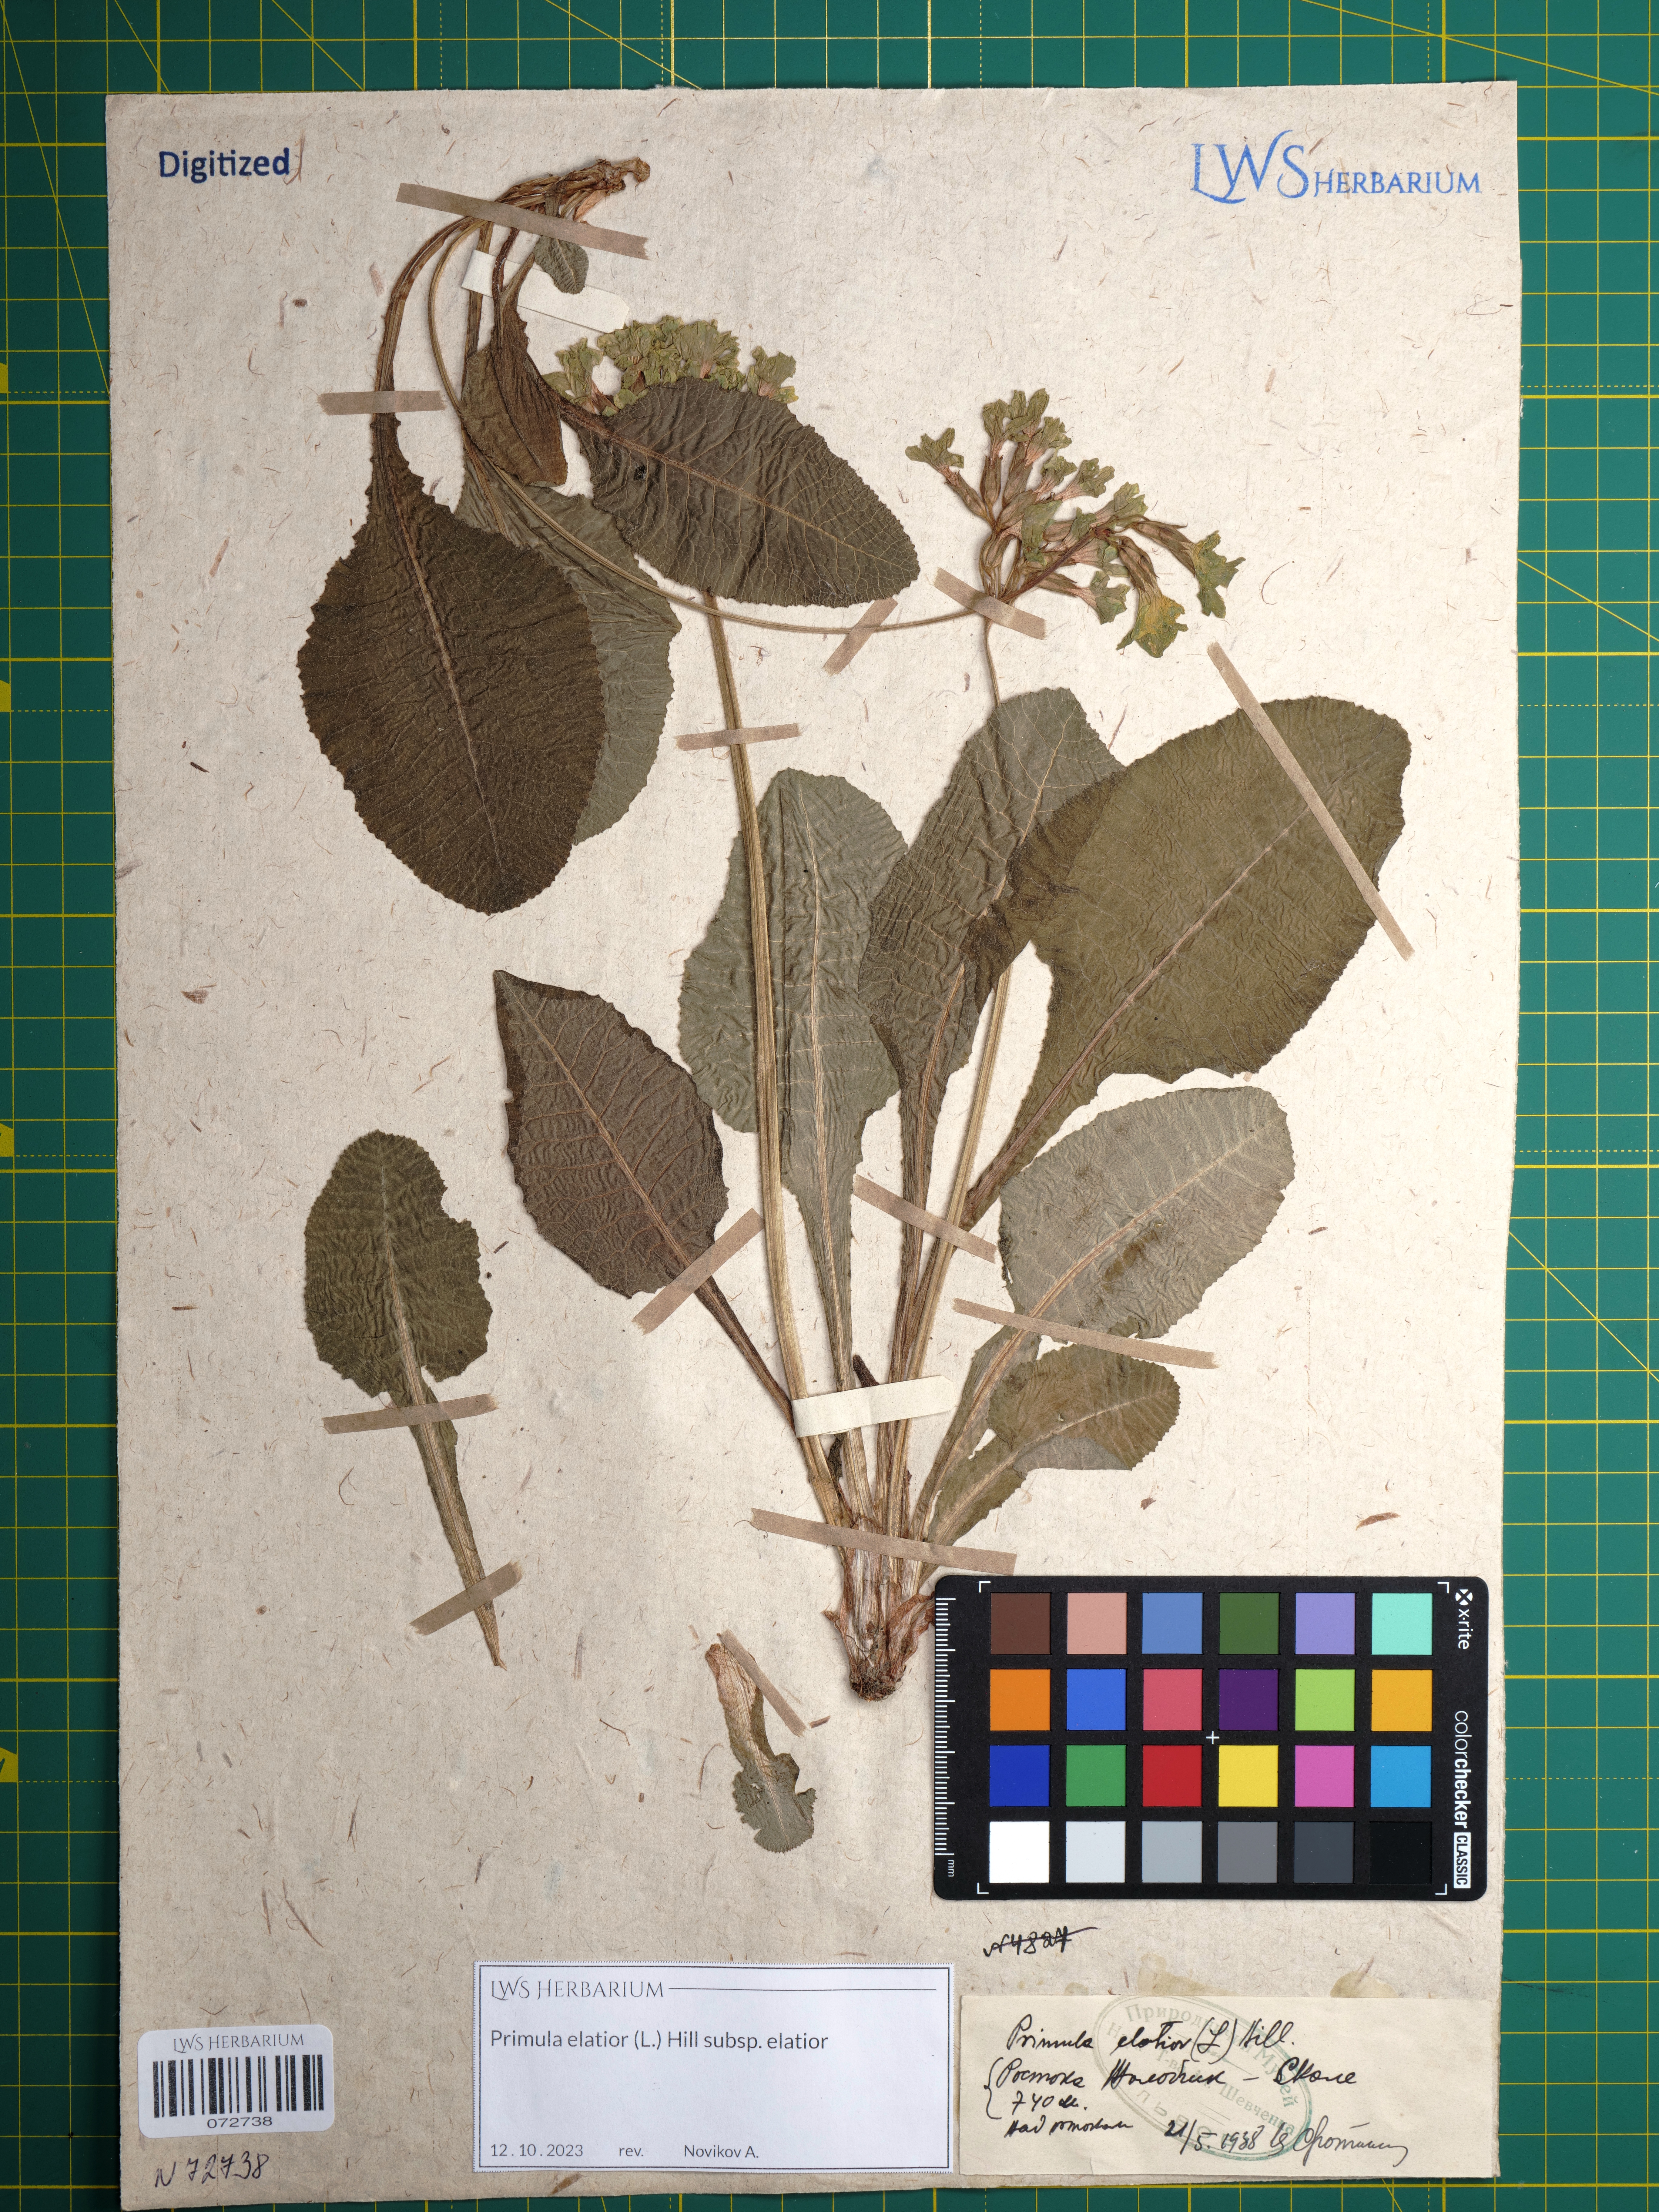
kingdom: Plantae
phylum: Tracheophyta
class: Magnoliopsida
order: Ericales
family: Primulaceae
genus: Primula
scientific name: Primula elatior
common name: Oxlip
